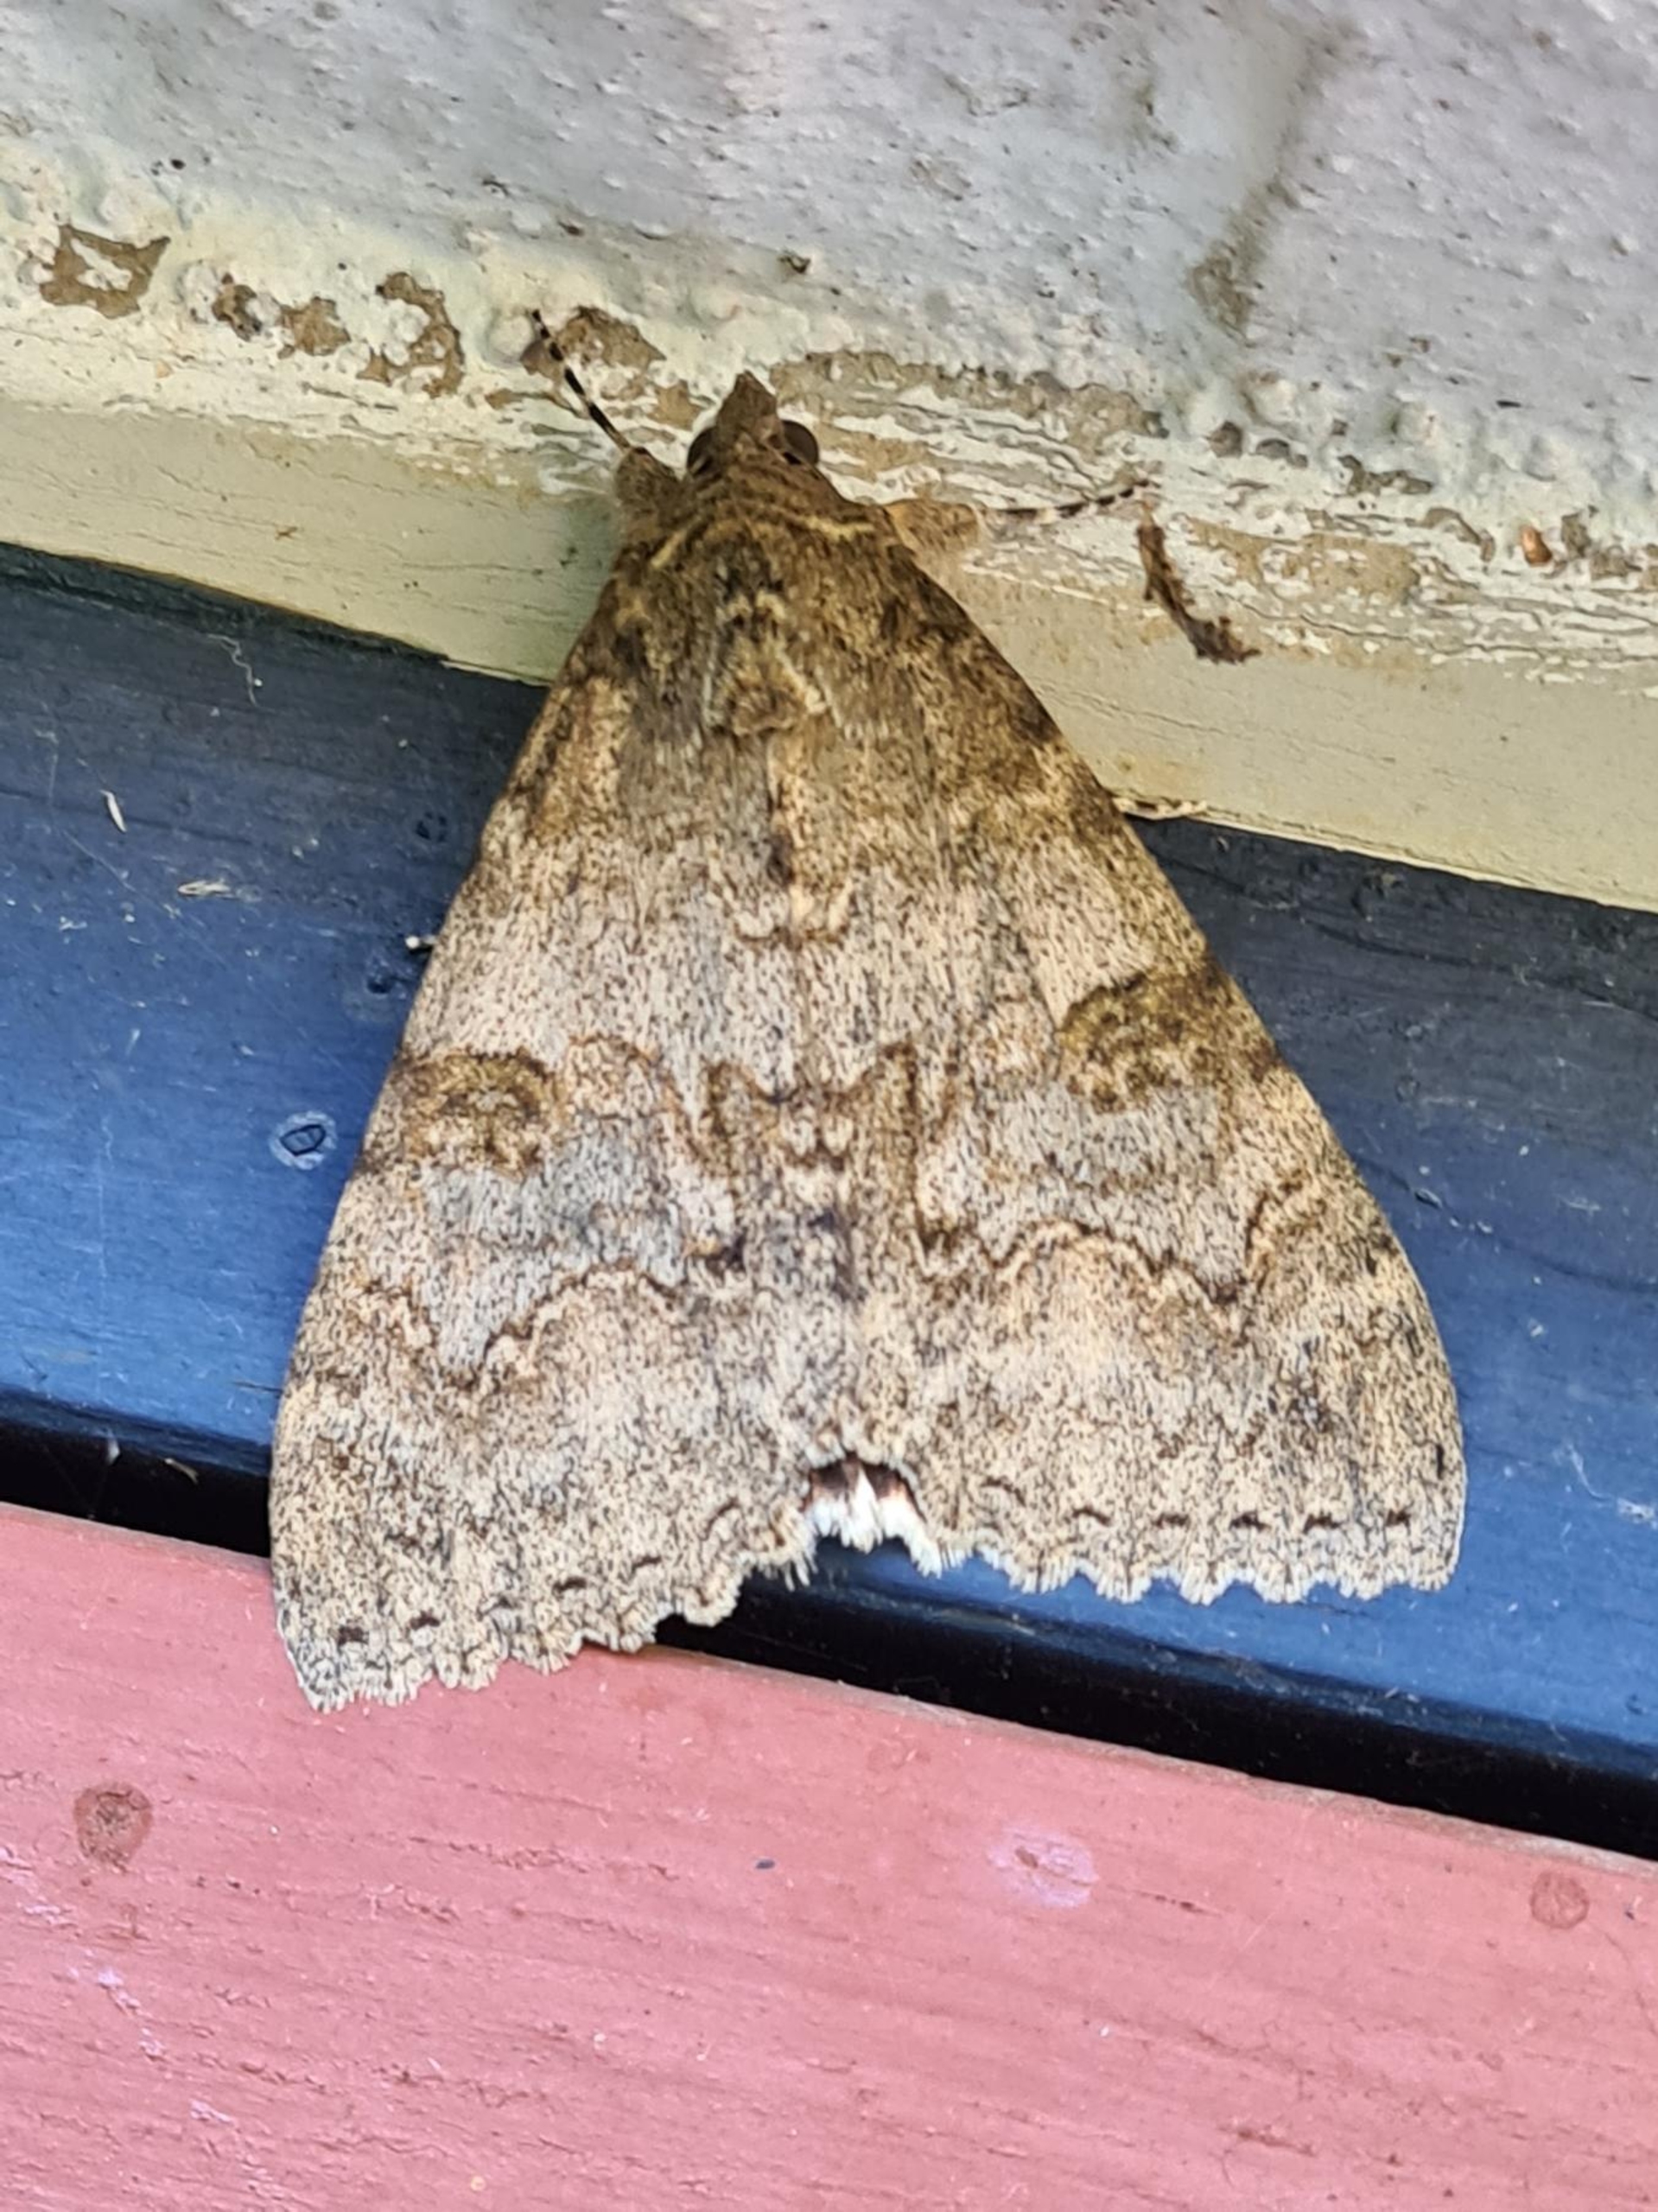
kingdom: Animalia
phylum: Arthropoda
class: Insecta
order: Lepidoptera
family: Erebidae
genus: Catocala
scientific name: Catocala nupta
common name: Rødt ordensbånd
